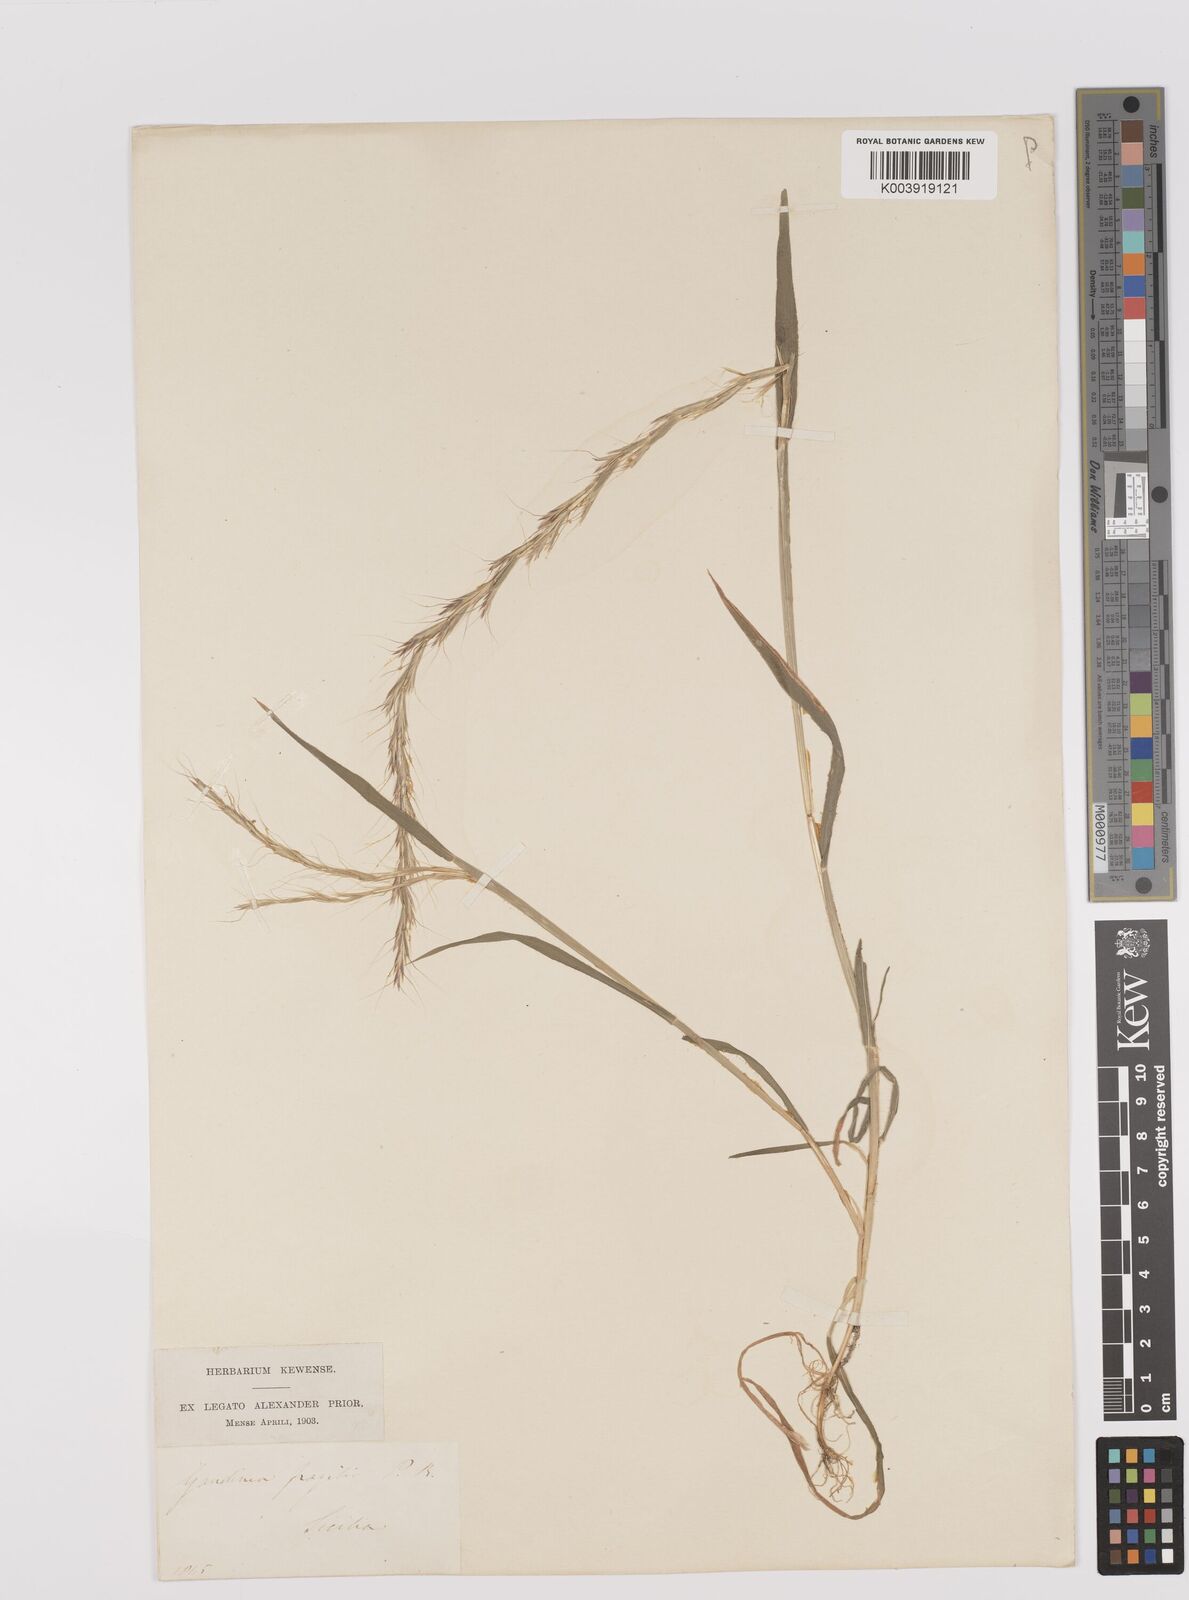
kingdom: Plantae
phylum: Tracheophyta
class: Liliopsida
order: Poales
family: Poaceae
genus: Gaudinia
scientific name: Gaudinia fragilis
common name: French oat-grass
